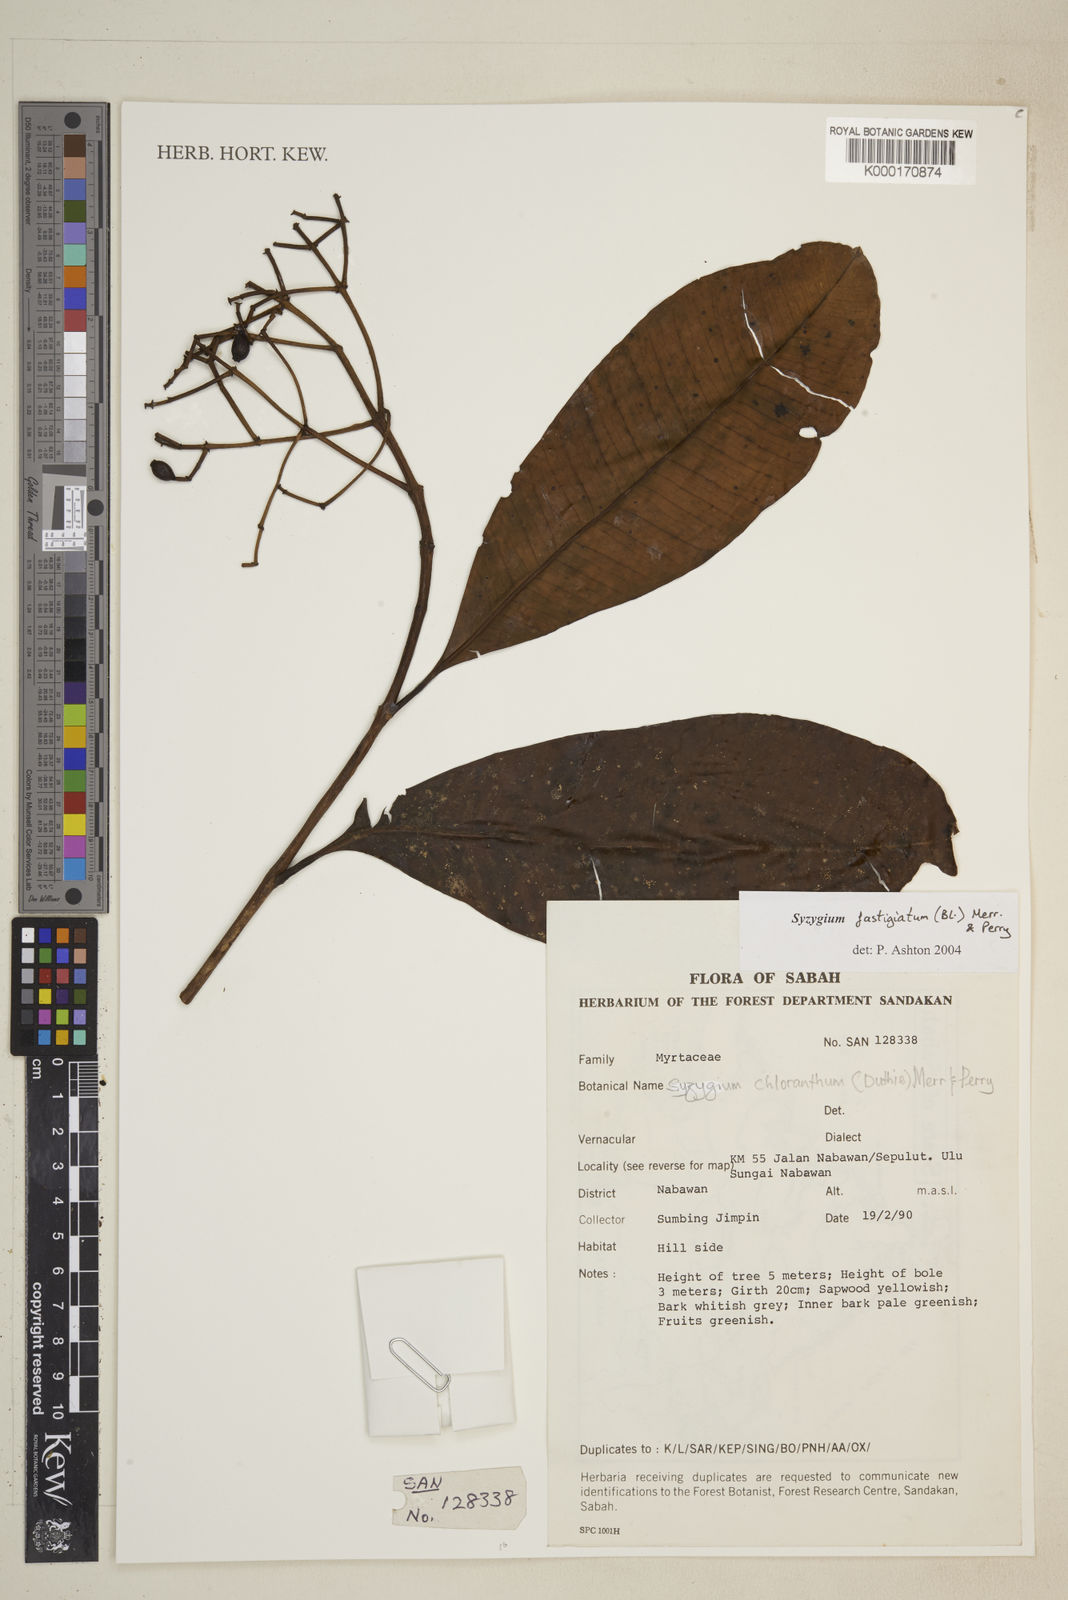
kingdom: Plantae
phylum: Tracheophyta
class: Magnoliopsida
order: Myrtales
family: Myrtaceae
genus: Syzygium
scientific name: Syzygium fastigiatum
